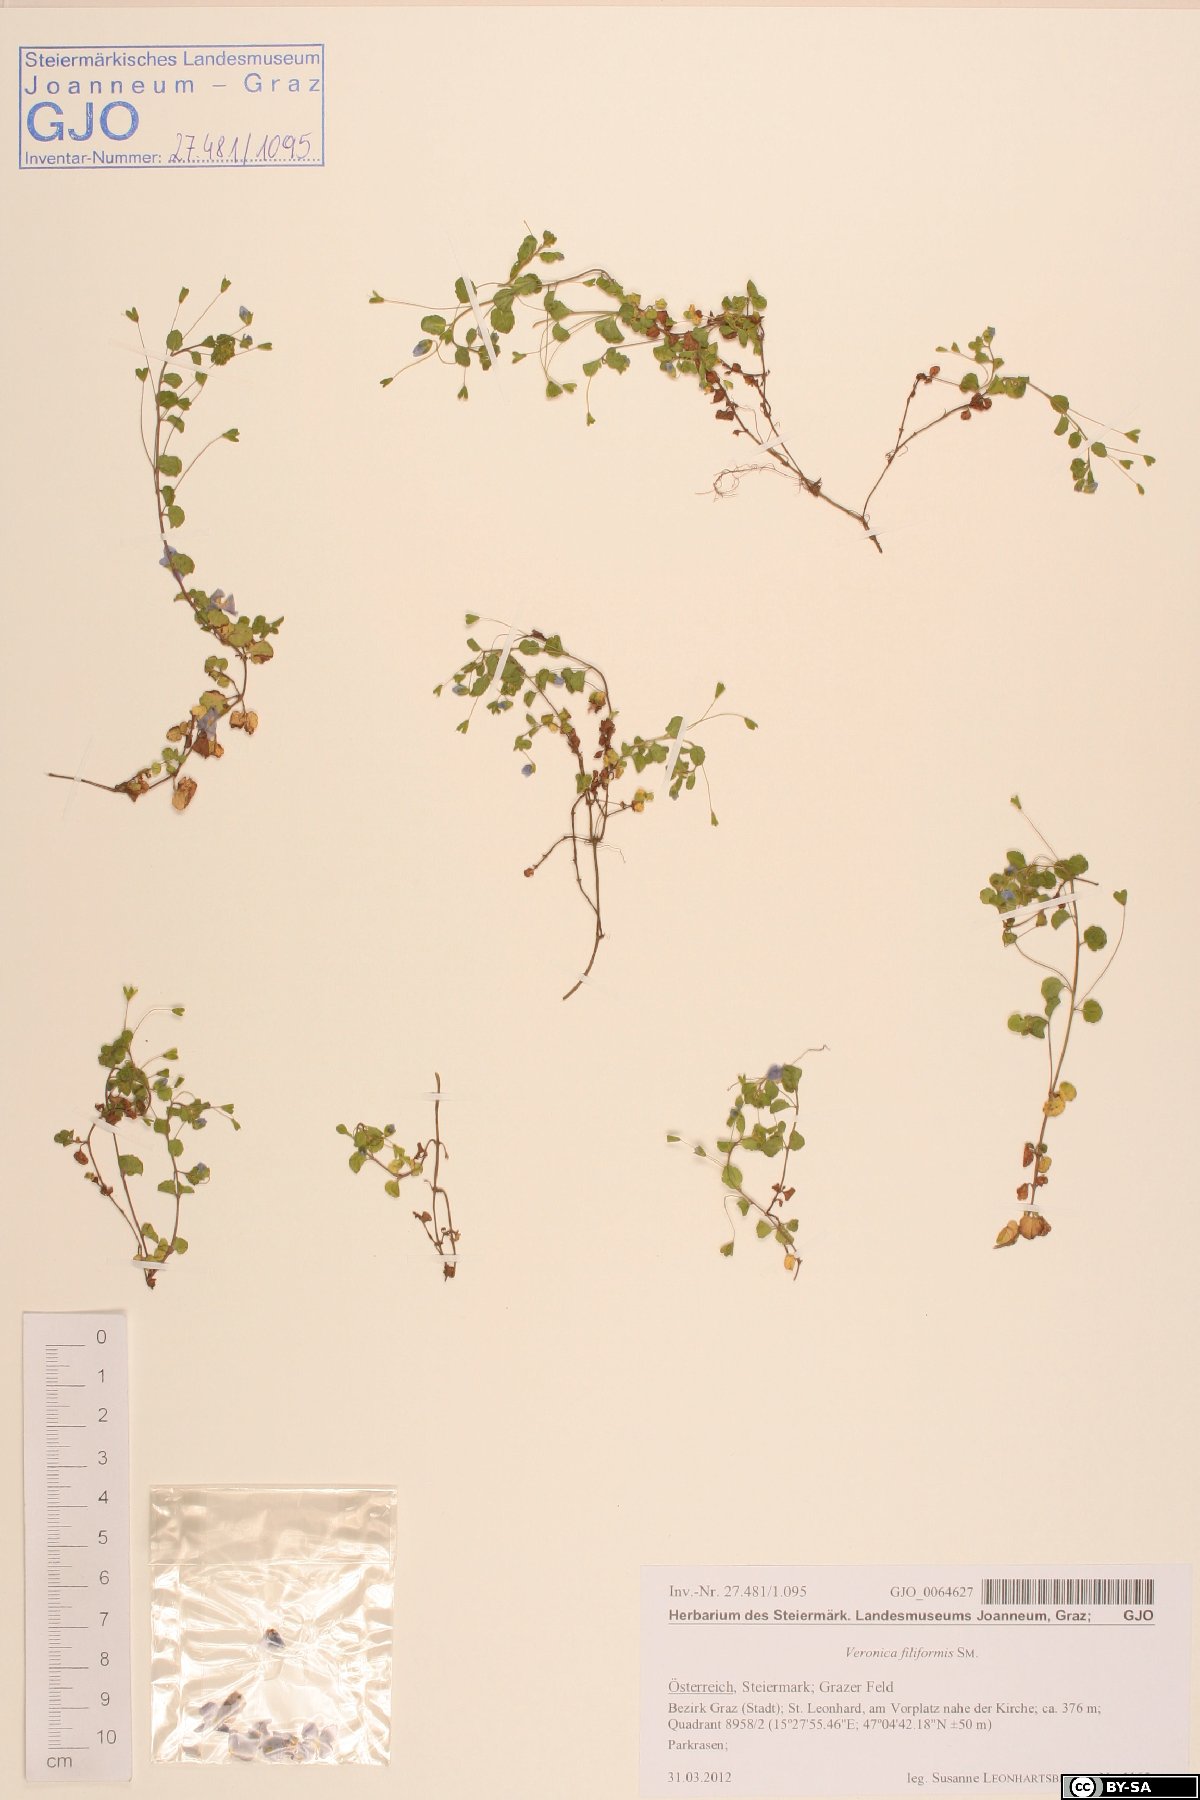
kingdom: Plantae
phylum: Tracheophyta
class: Magnoliopsida
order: Lamiales
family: Plantaginaceae
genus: Veronica
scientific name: Veronica filiformis
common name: Slender speedwell
